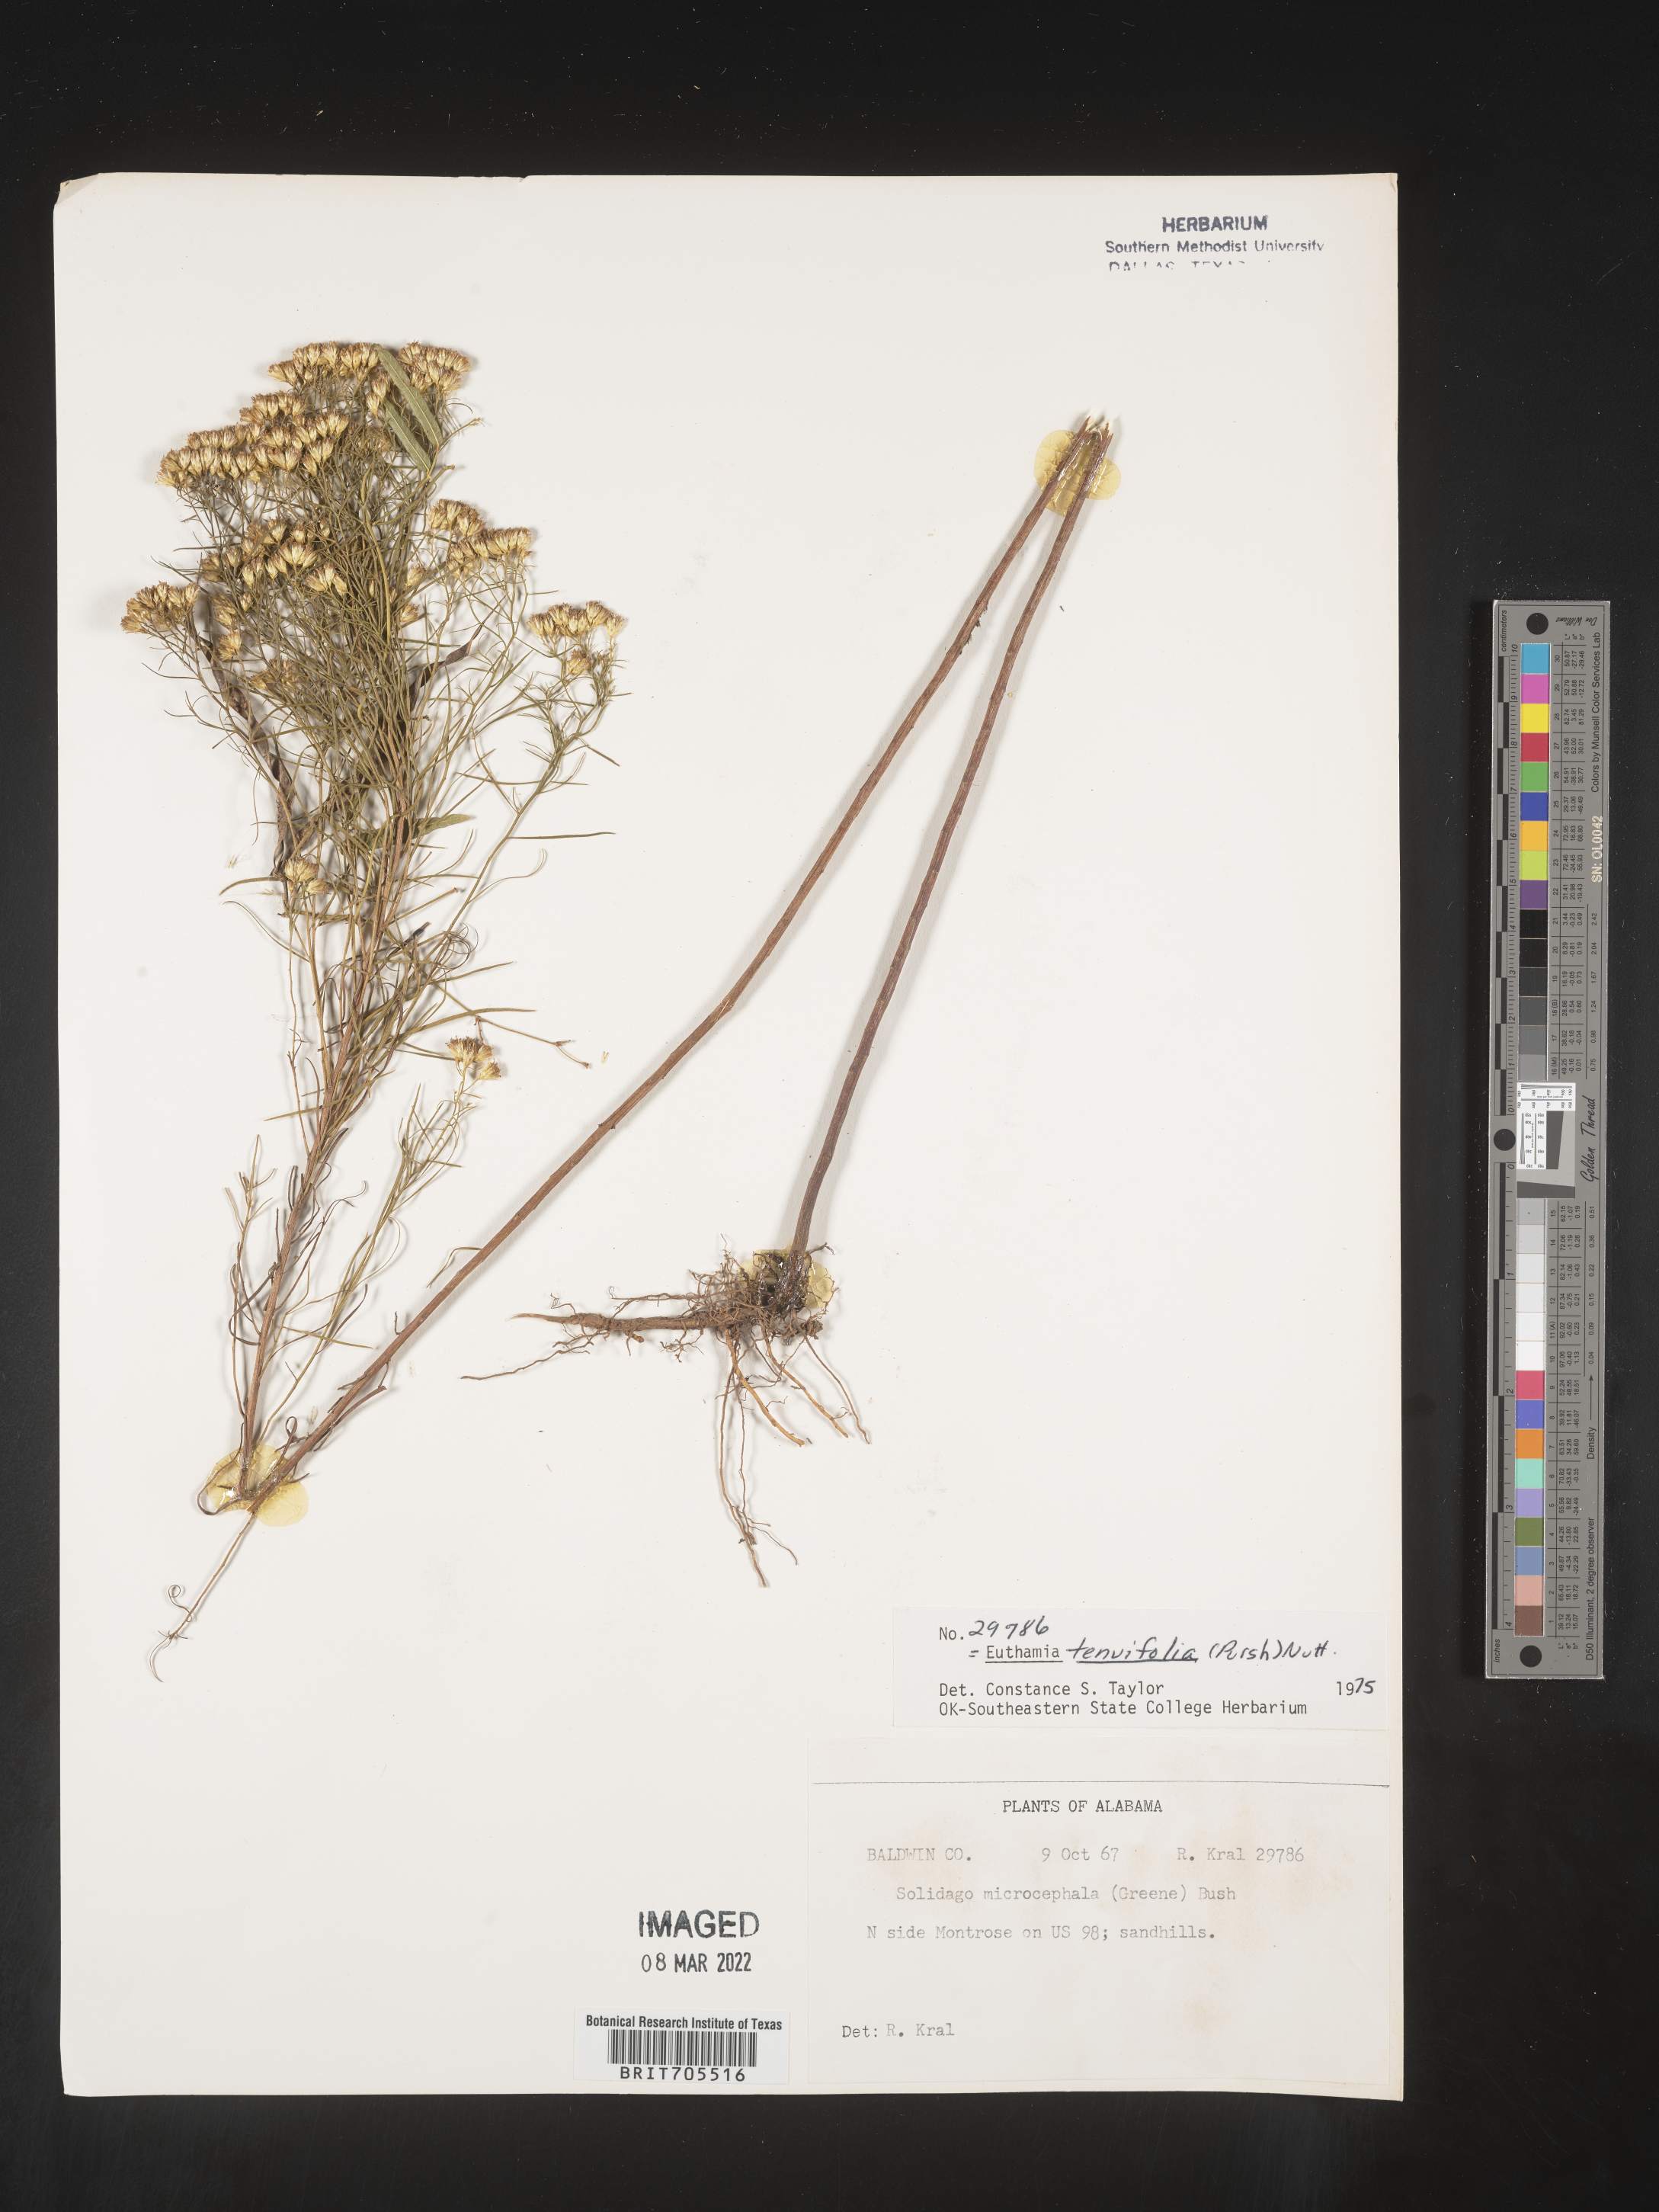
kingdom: Plantae
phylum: Tracheophyta
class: Magnoliopsida
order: Asterales
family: Asteraceae
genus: Euthamia
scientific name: Euthamia caroliniana
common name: Coastal plain goldentop
